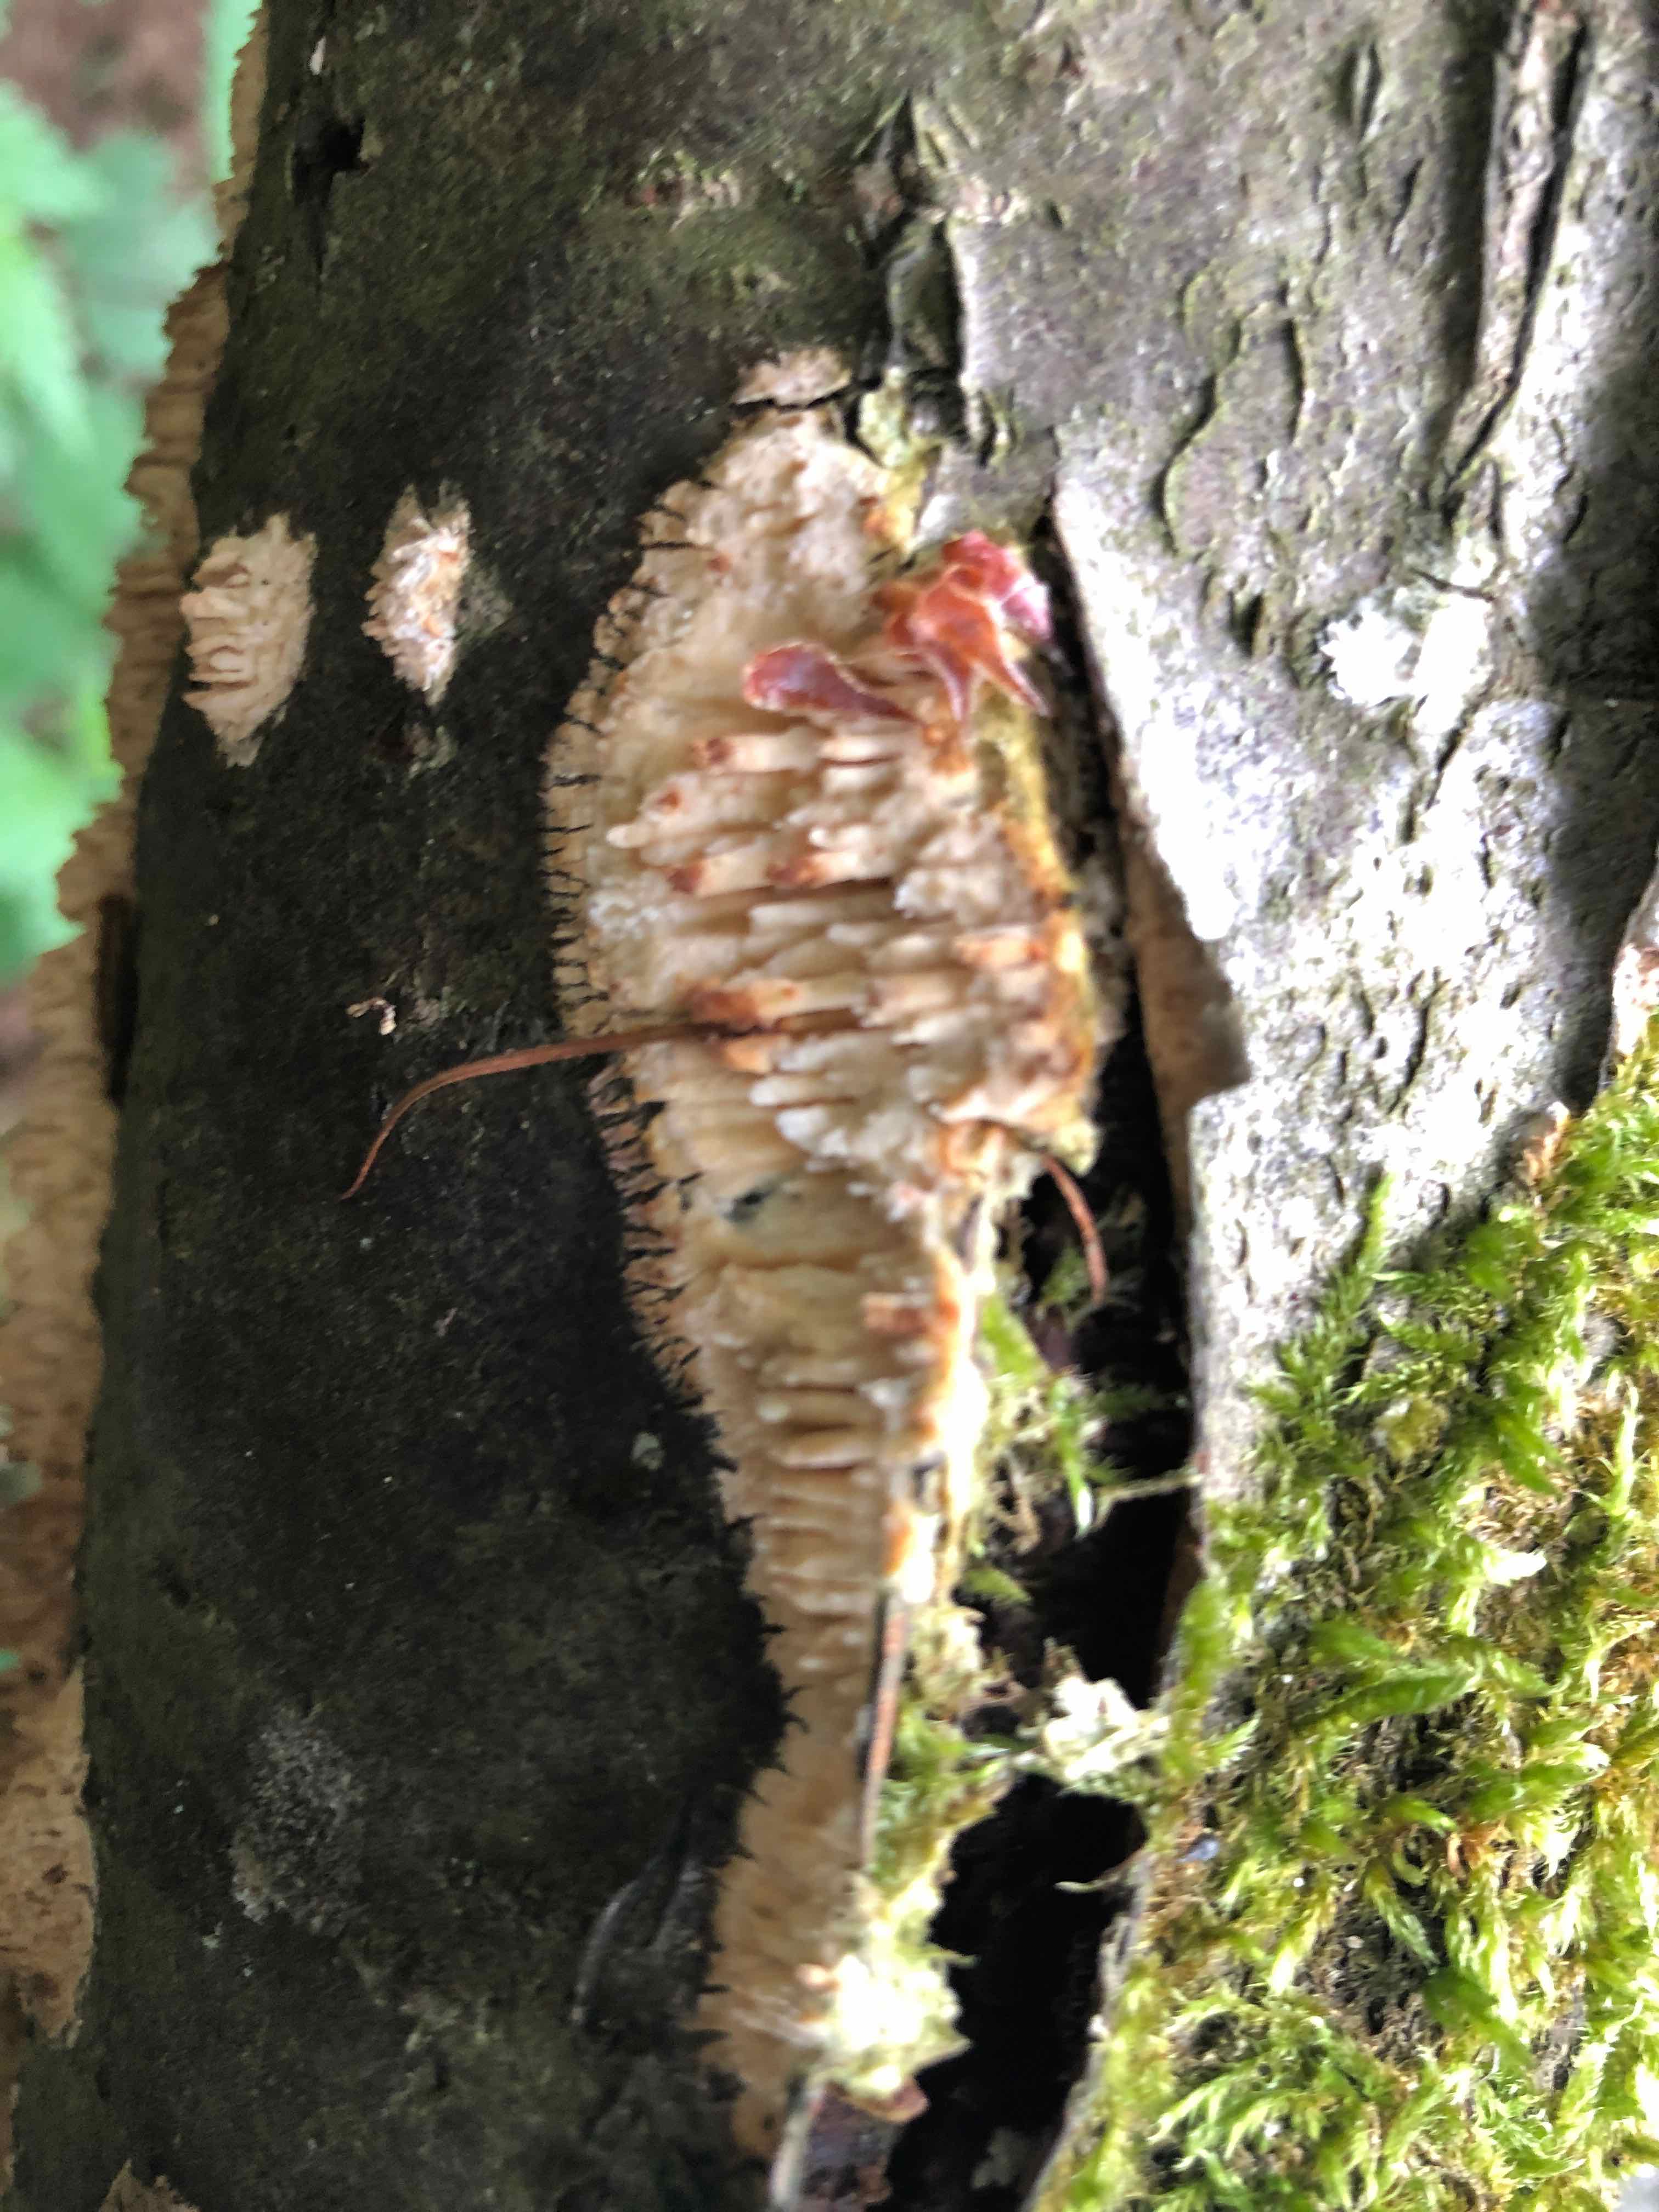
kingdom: Fungi
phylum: Basidiomycota
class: Agaricomycetes
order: Hymenochaetales
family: Schizoporaceae
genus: Xylodon
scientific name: Xylodon radula
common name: grovtandet kalkskind
